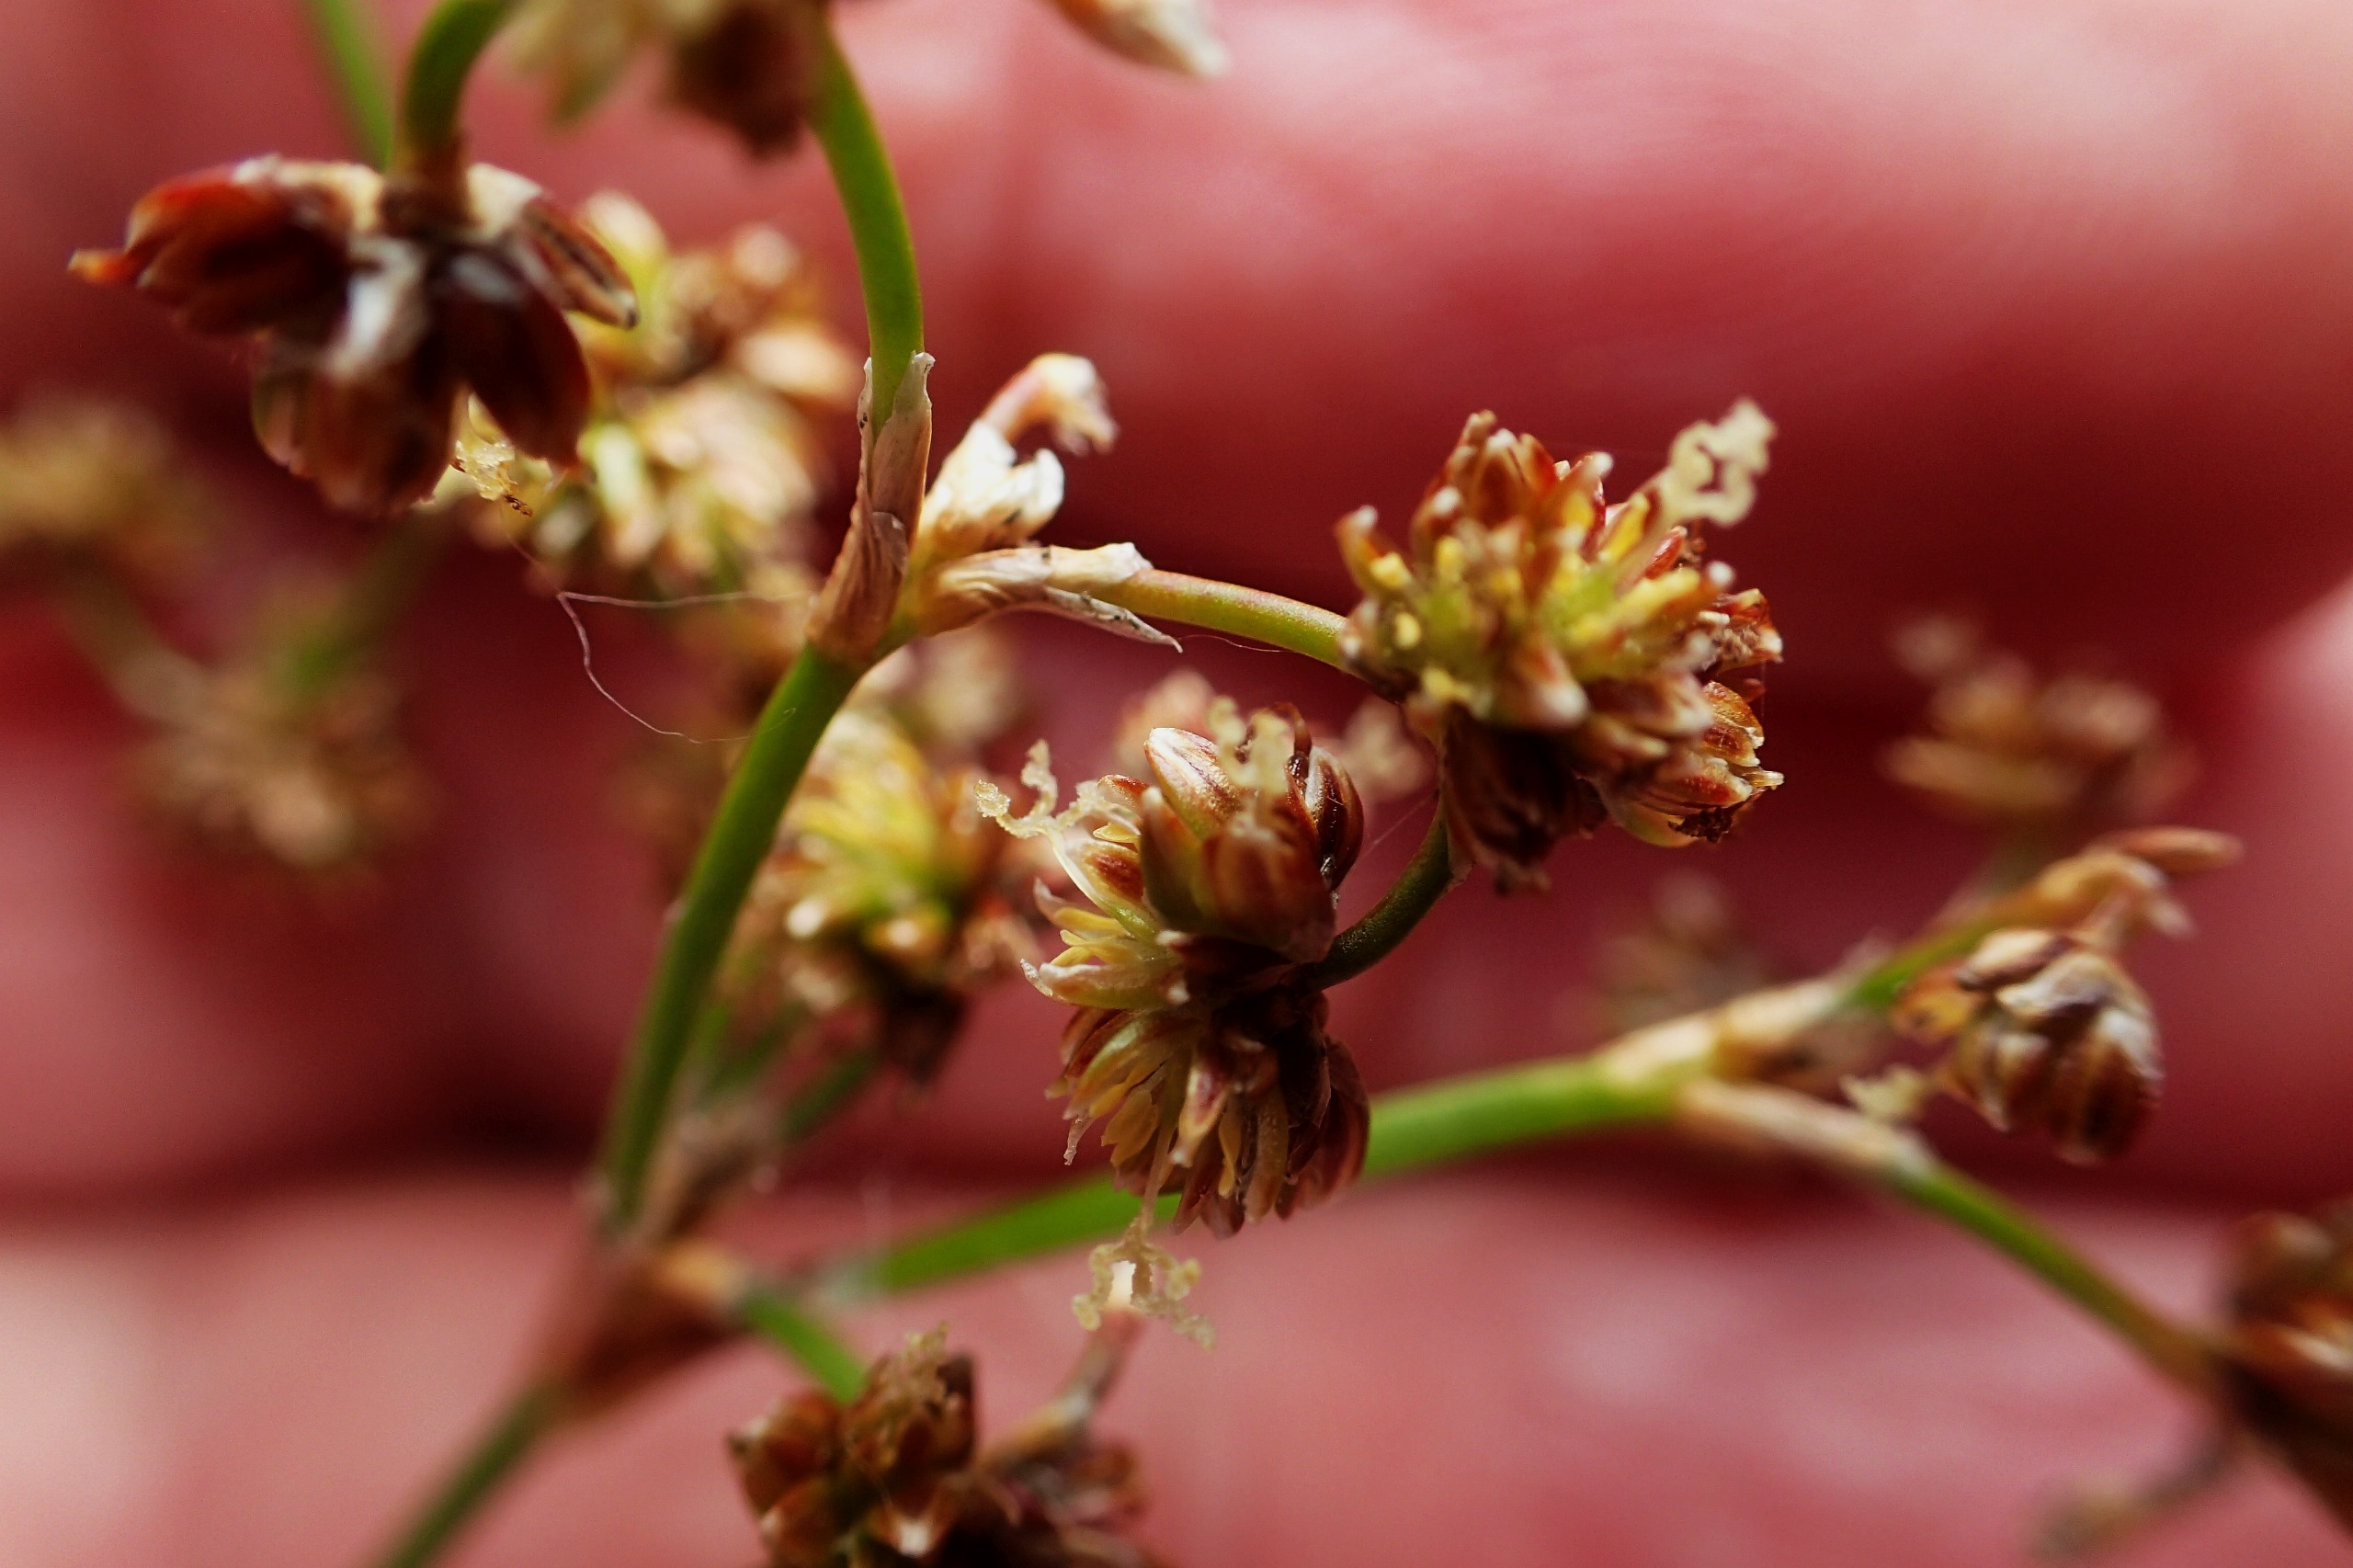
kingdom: Plantae
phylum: Tracheophyta
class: Liliopsida
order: Poales
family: Juncaceae
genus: Juncus
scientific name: Juncus subnodulosus
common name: Butblomstret siv
